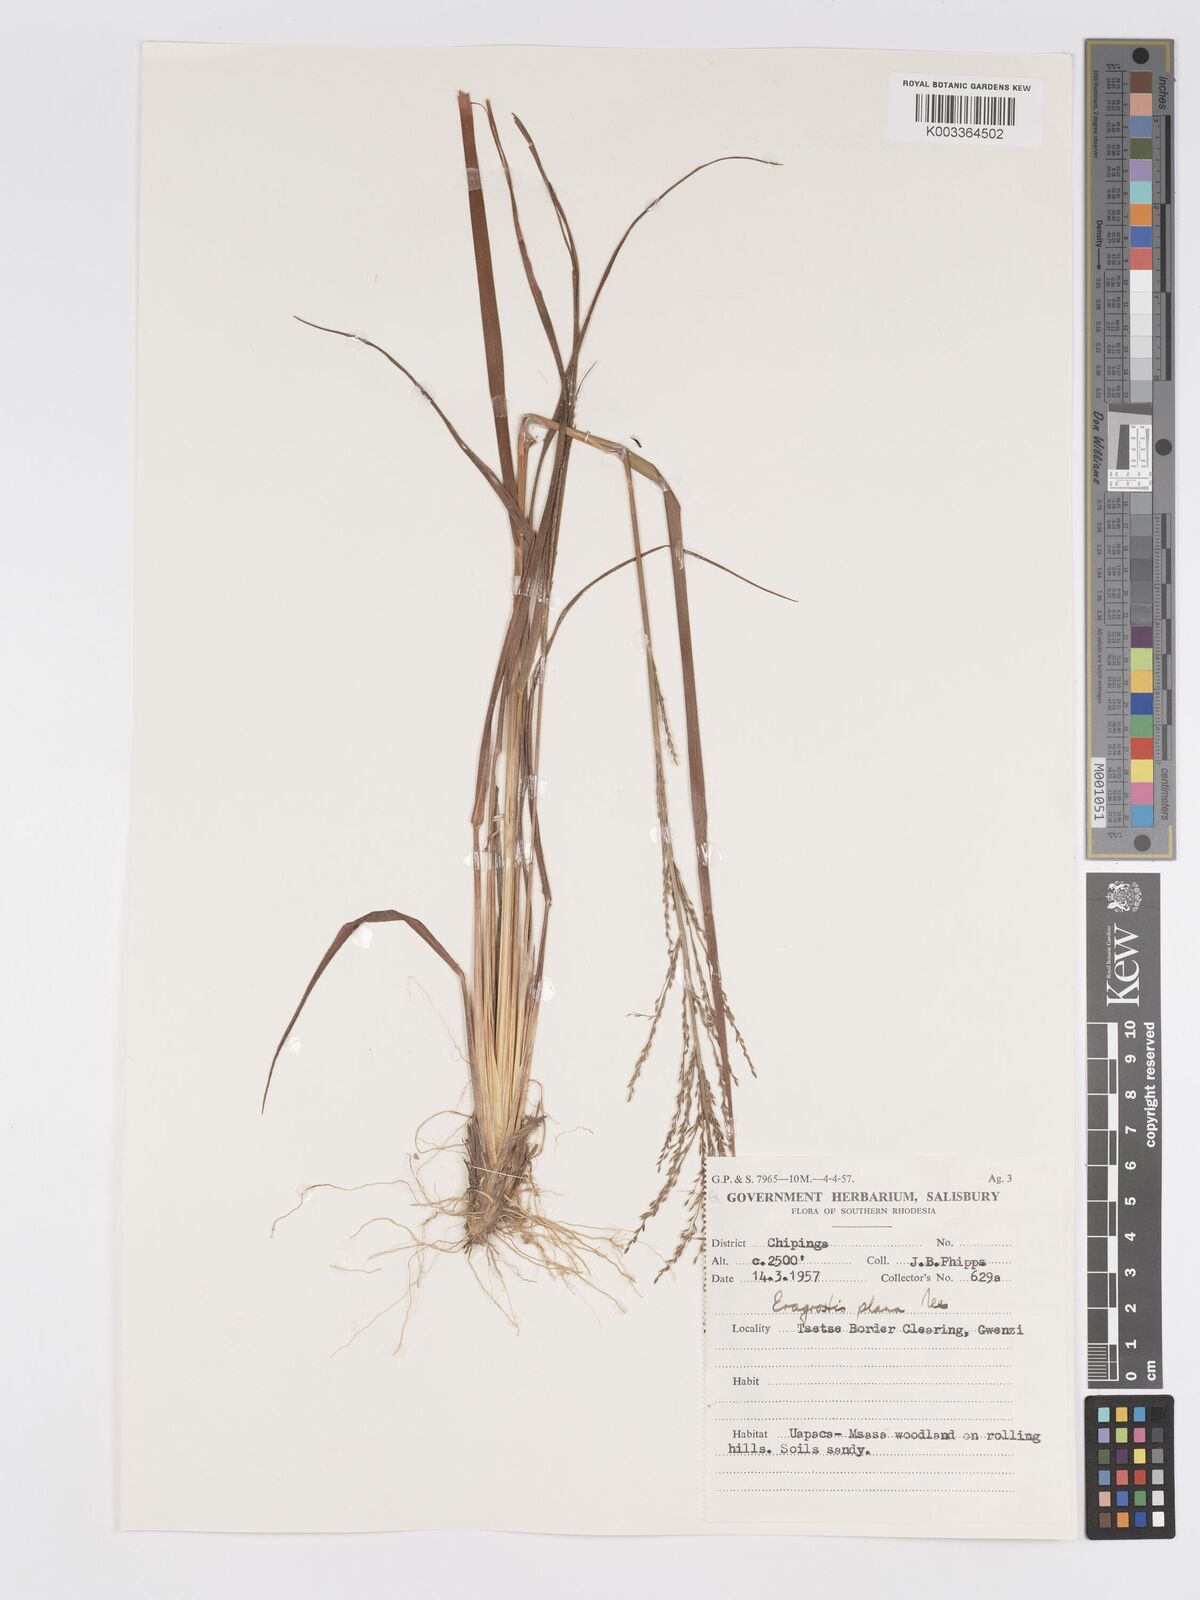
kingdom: Plantae
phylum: Tracheophyta
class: Liliopsida
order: Poales
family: Poaceae
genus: Eragrostis
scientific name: Eragrostis sclerantha
